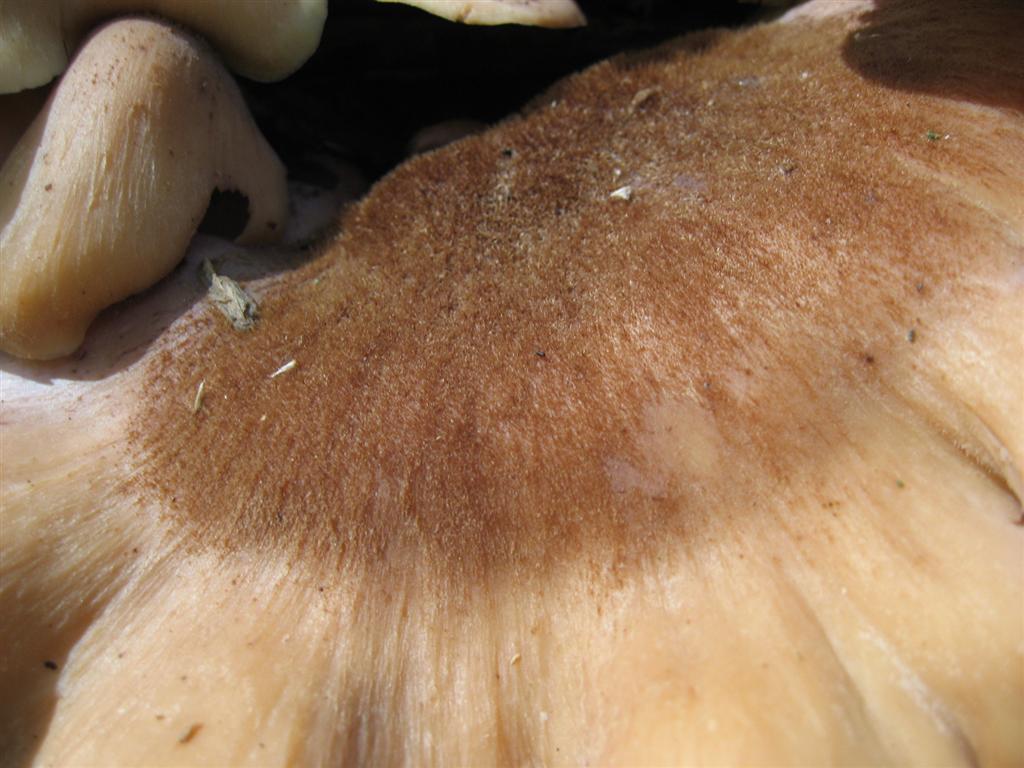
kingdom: Fungi
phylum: Basidiomycota
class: Agaricomycetes
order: Russulales
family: Auriscalpiaceae
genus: Lentinellus
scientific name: Lentinellus ursinus
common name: børstehåret savbladhat
